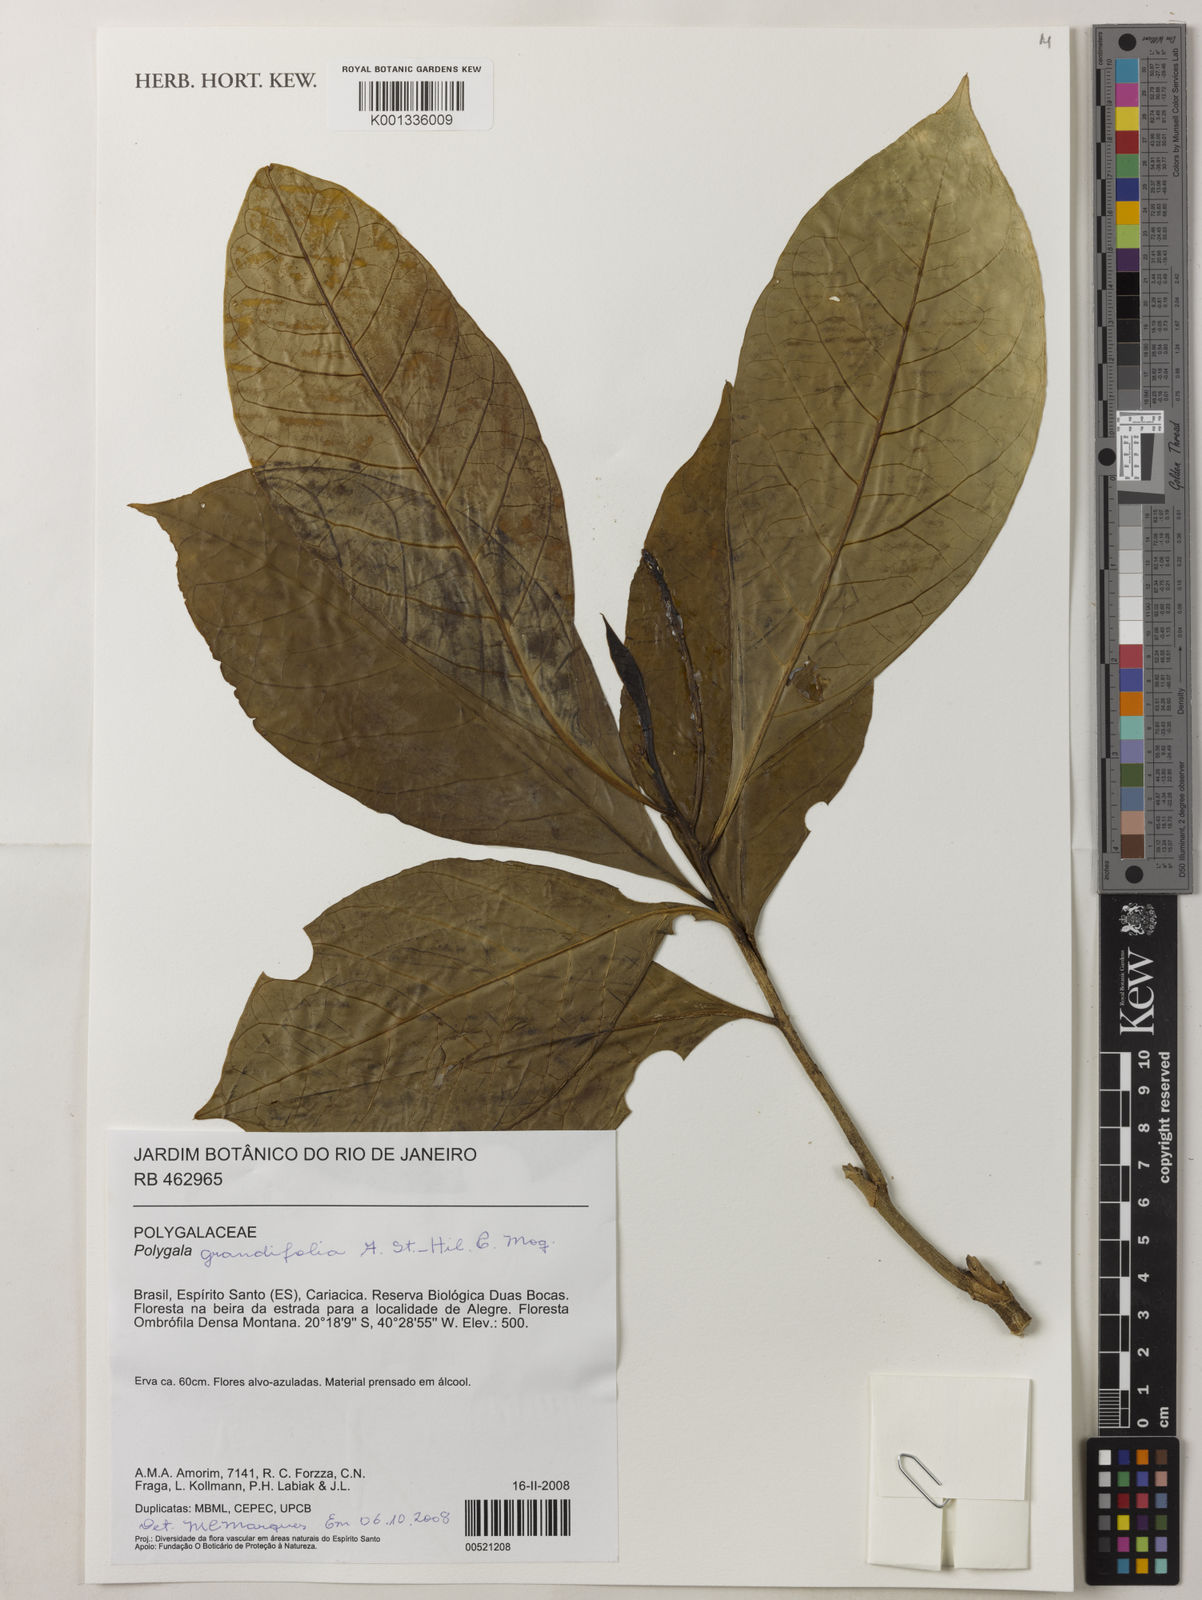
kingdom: Plantae
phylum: Tracheophyta
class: Magnoliopsida
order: Fabales
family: Polygalaceae
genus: Caamembeca
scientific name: Caamembeca grandifolia
